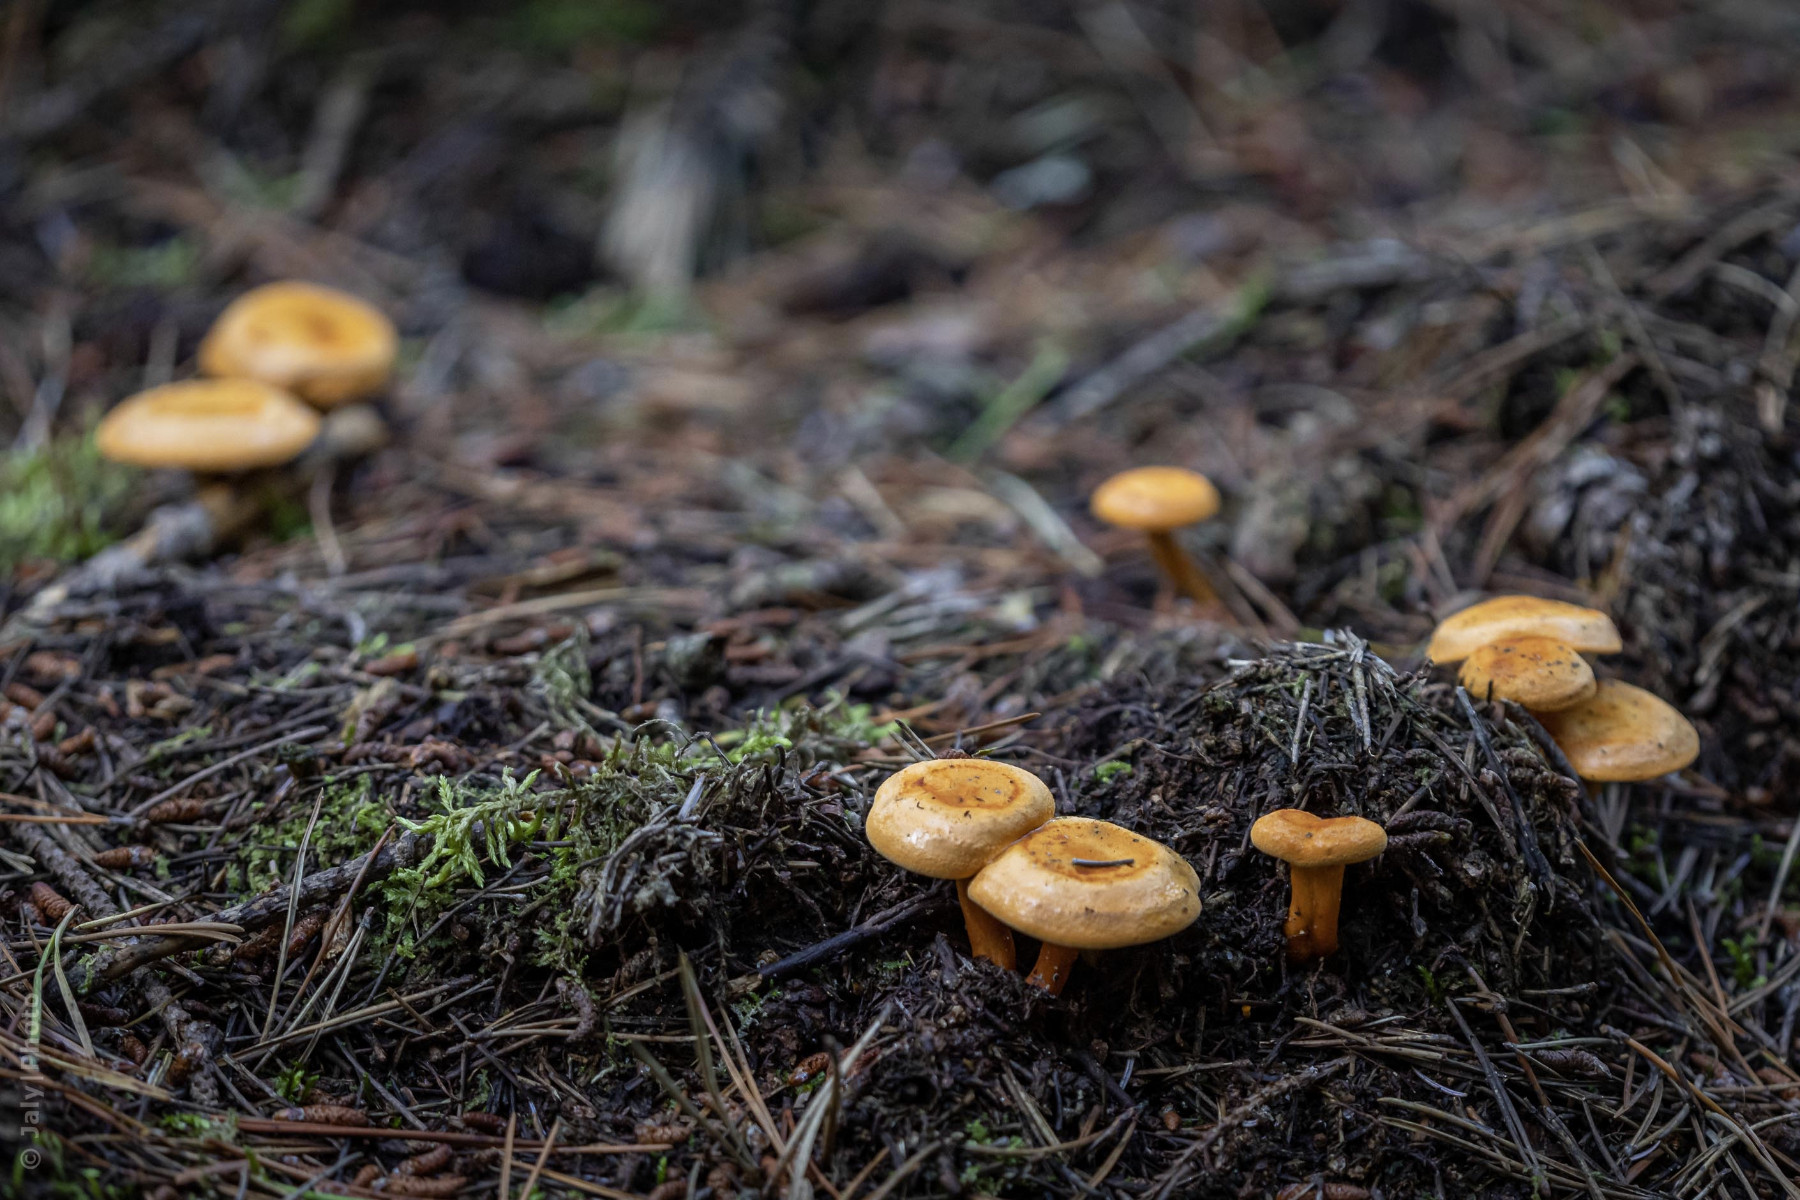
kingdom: Fungi
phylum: Basidiomycota
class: Agaricomycetes
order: Boletales
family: Hygrophoropsidaceae
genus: Hygrophoropsis
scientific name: Hygrophoropsis aurantiaca
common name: almindelig orangekantarel
